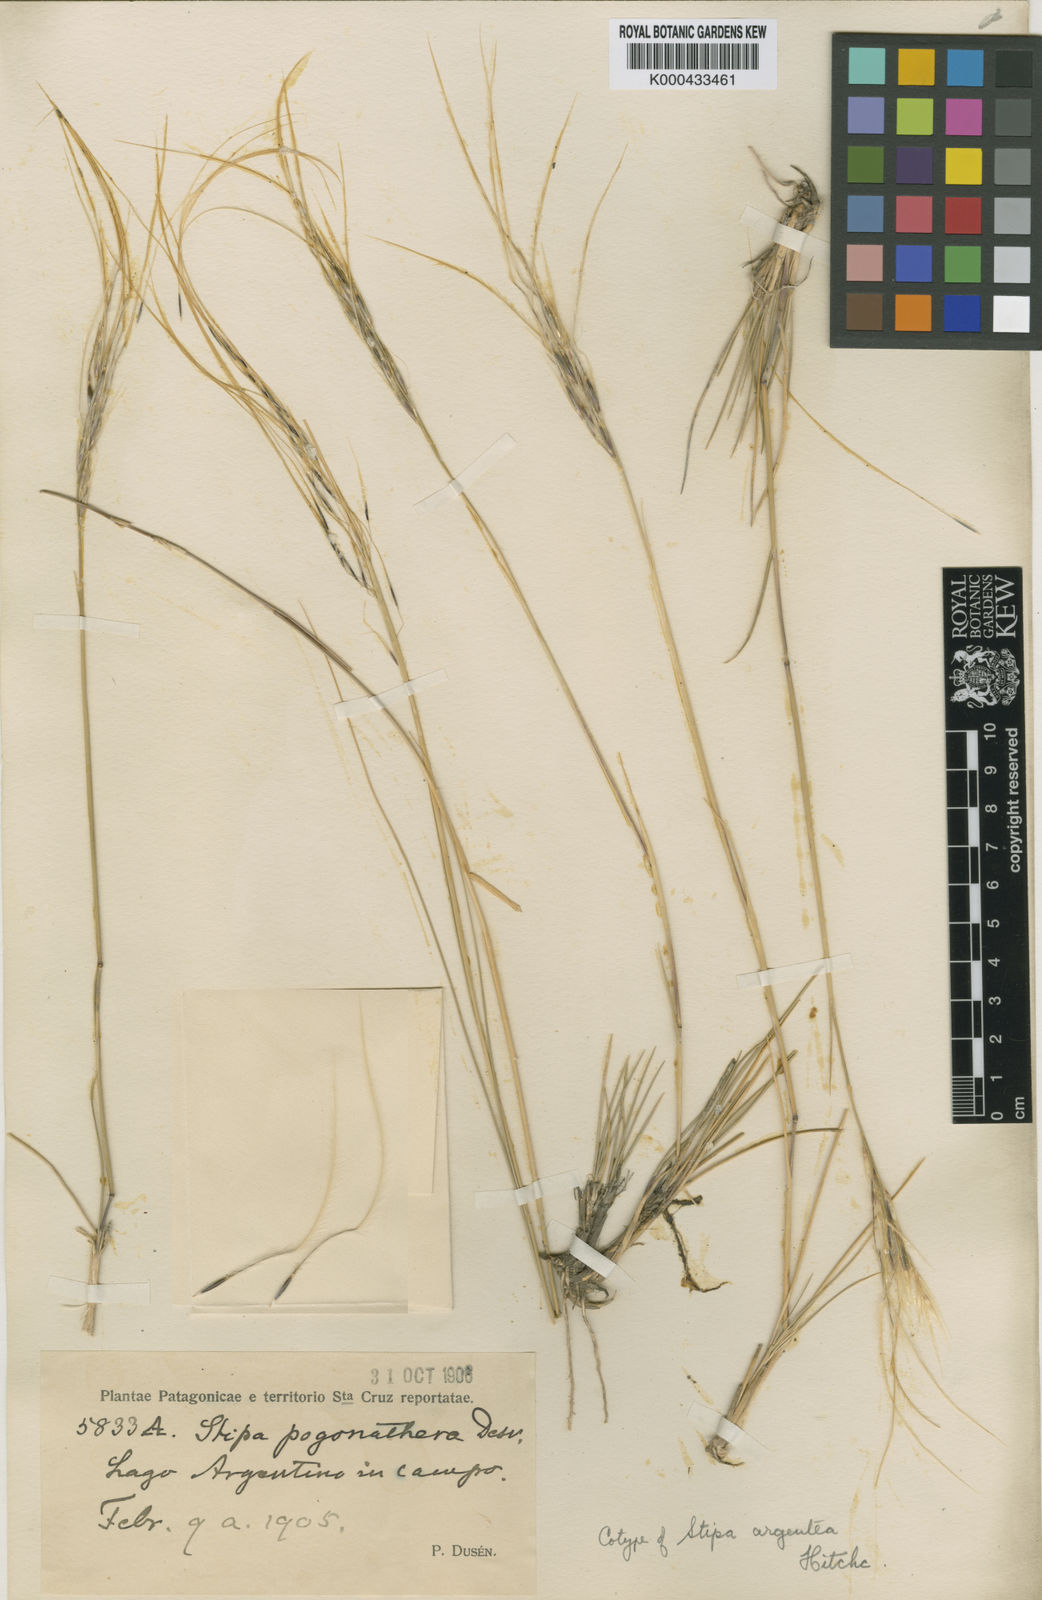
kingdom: Plantae
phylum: Tracheophyta
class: Liliopsida
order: Poales
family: Poaceae
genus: Stipa
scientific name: Stipa
